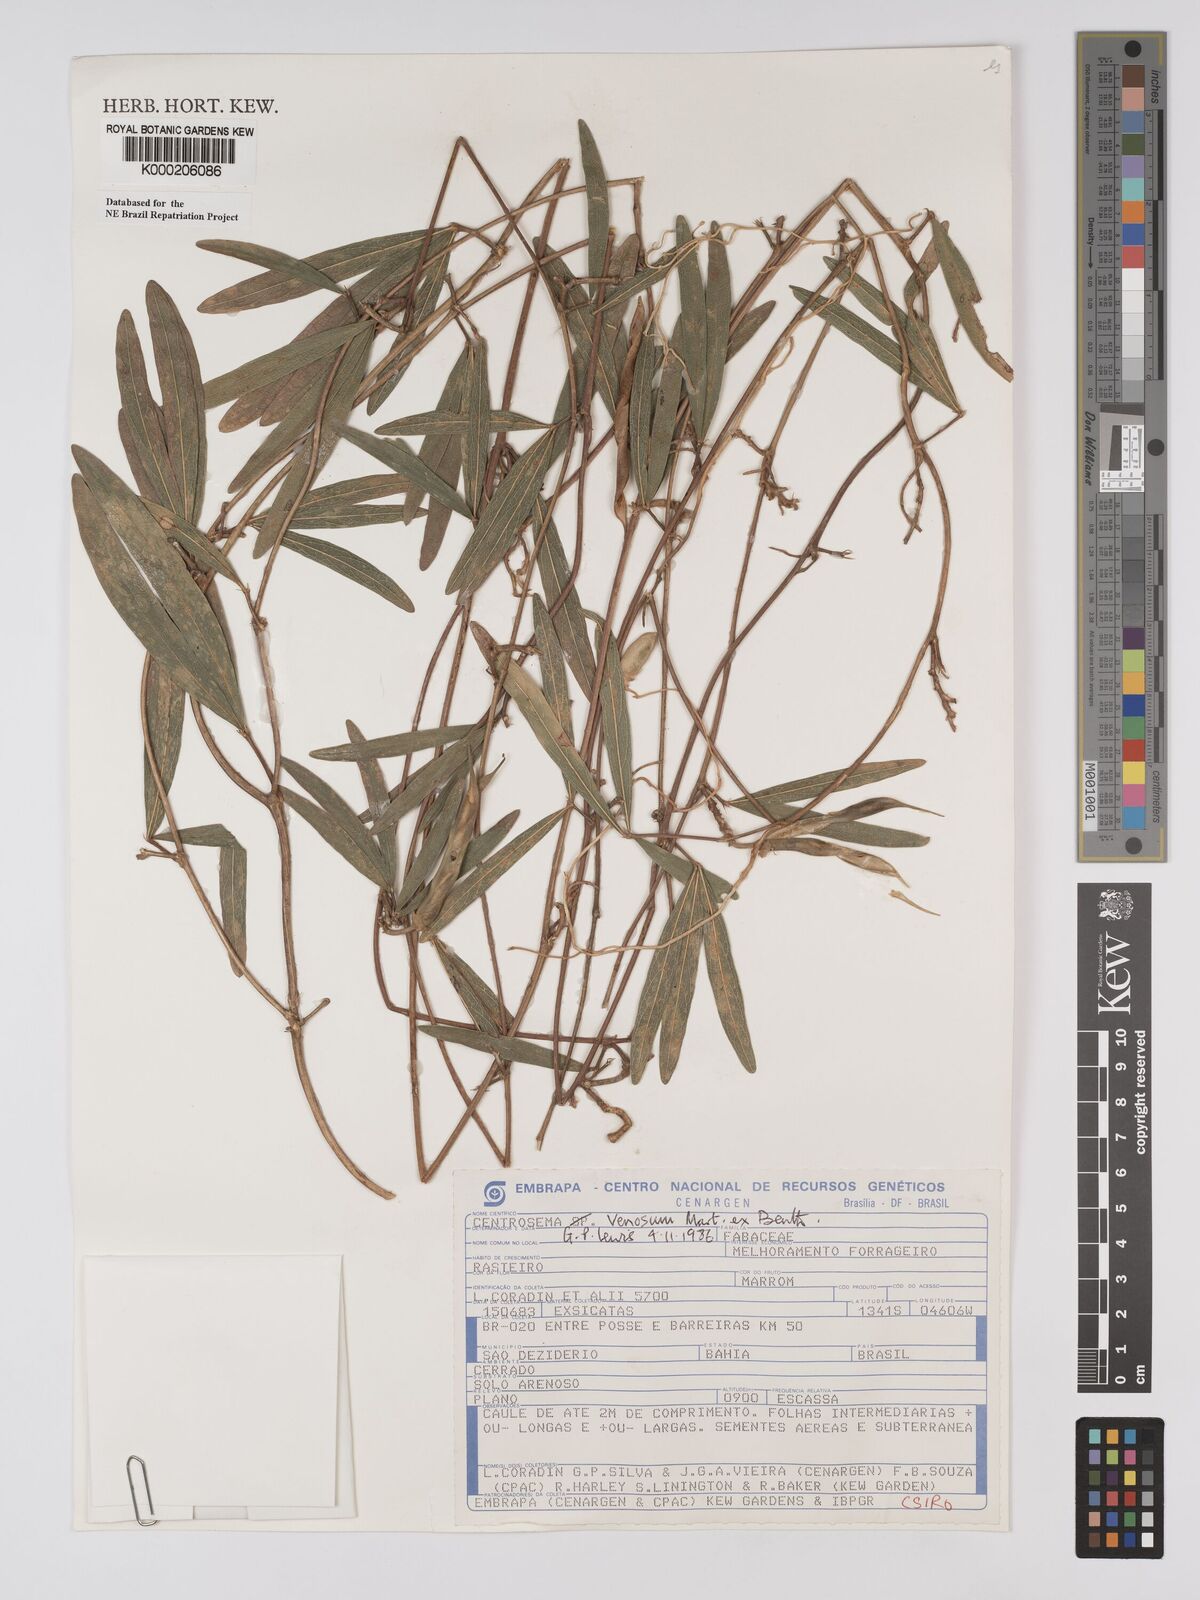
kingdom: Plantae
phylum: Tracheophyta
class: Magnoliopsida
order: Fabales
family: Fabaceae
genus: Centrosema
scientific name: Centrosema venosum
